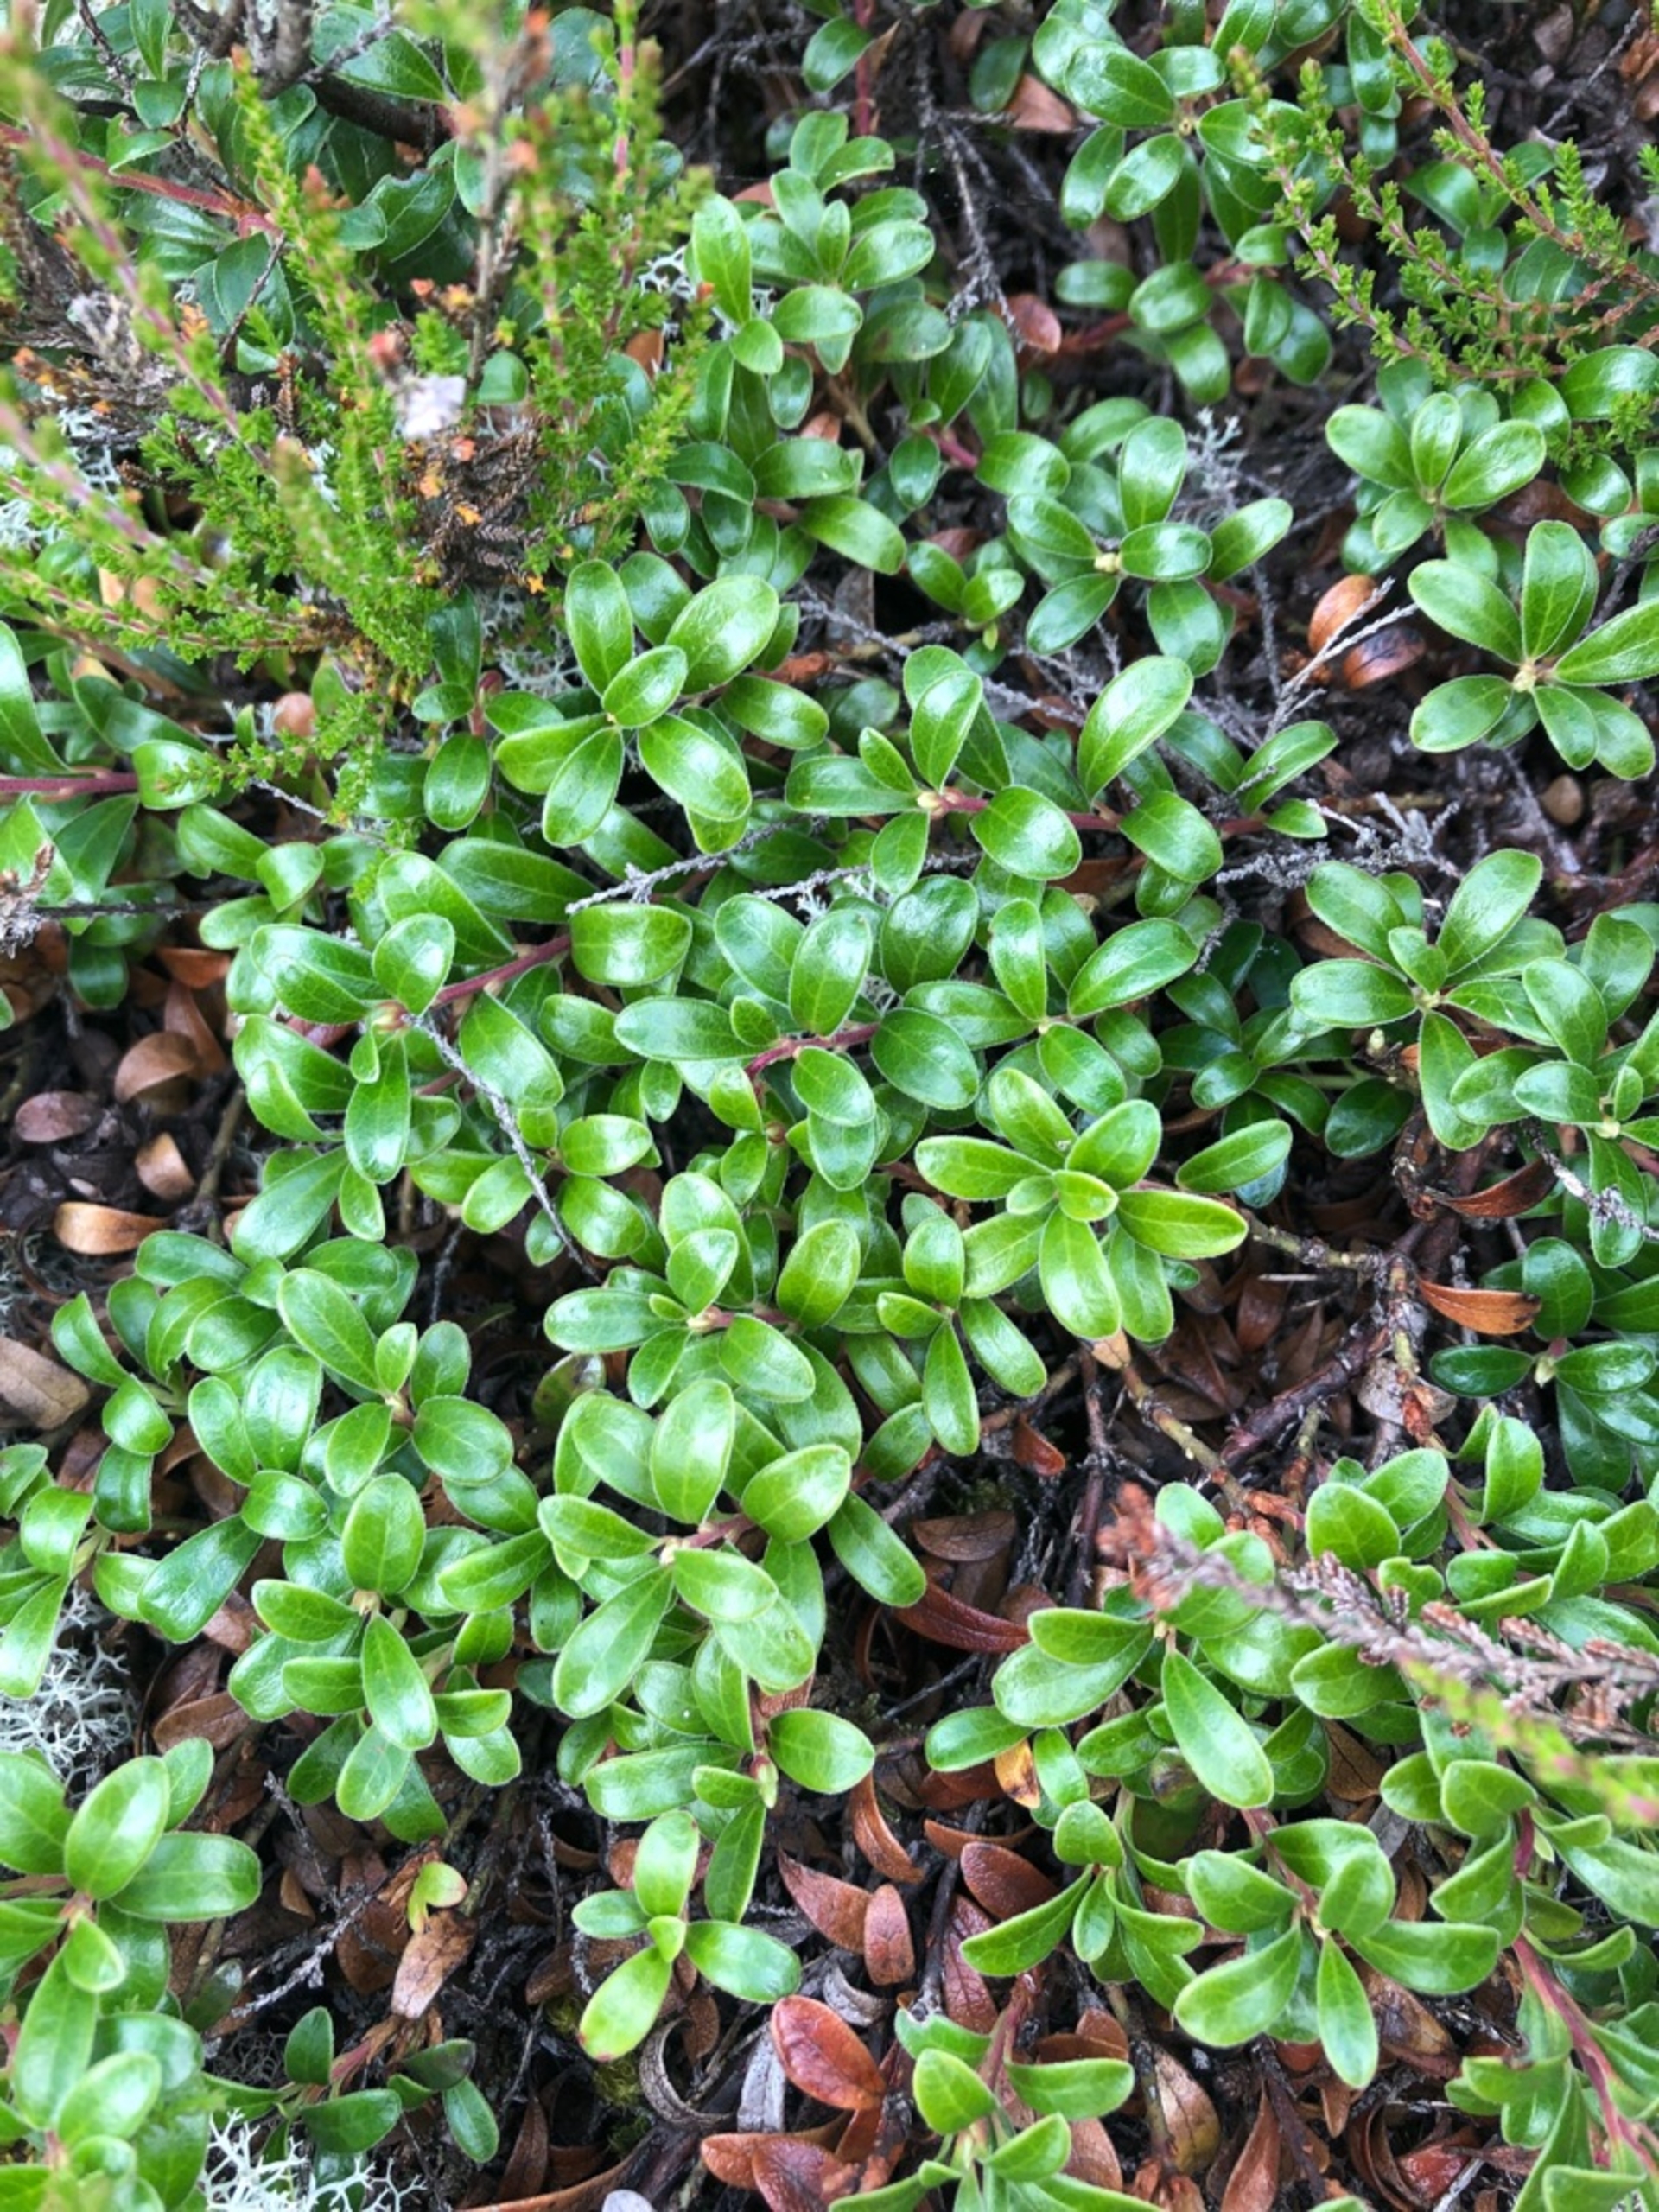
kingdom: Plantae
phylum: Tracheophyta
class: Magnoliopsida
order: Ericales
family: Ericaceae
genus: Arctostaphylos
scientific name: Arctostaphylos uva-ursi
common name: Hede-melbærris
